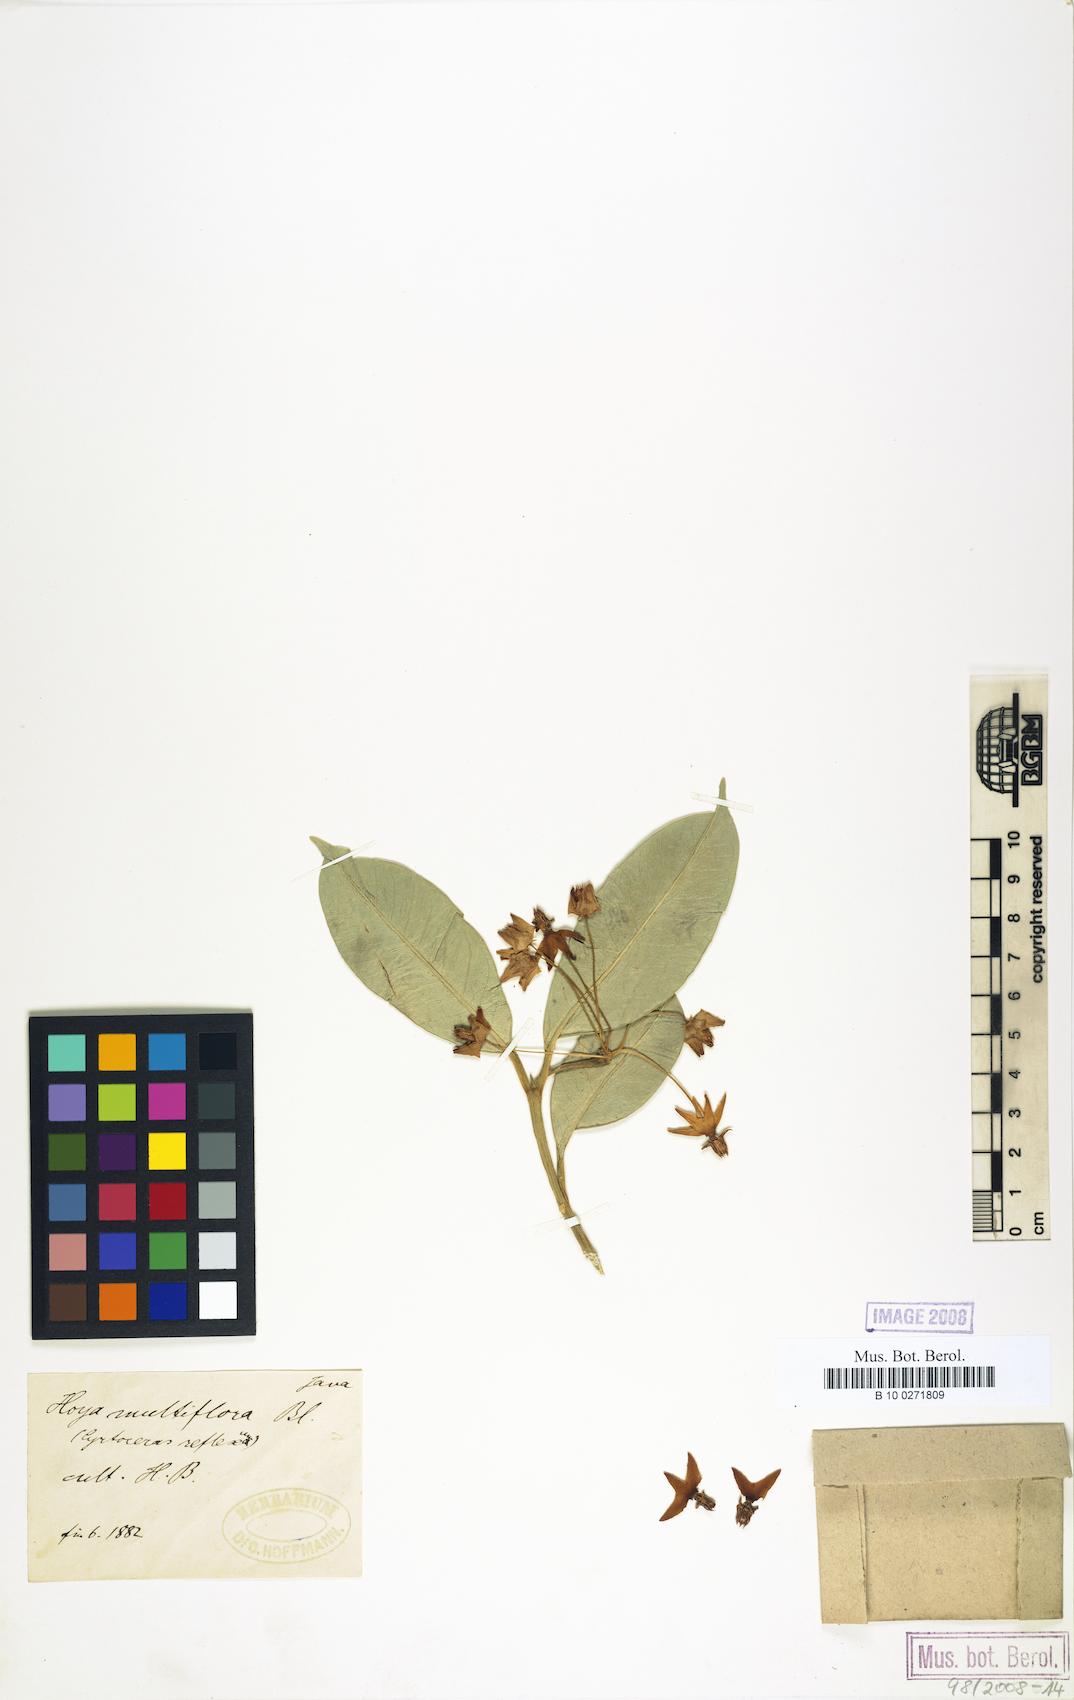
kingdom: Plantae
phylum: Tracheophyta
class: Magnoliopsida
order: Gentianales
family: Apocynaceae
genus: Hoya
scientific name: Hoya multiflora
